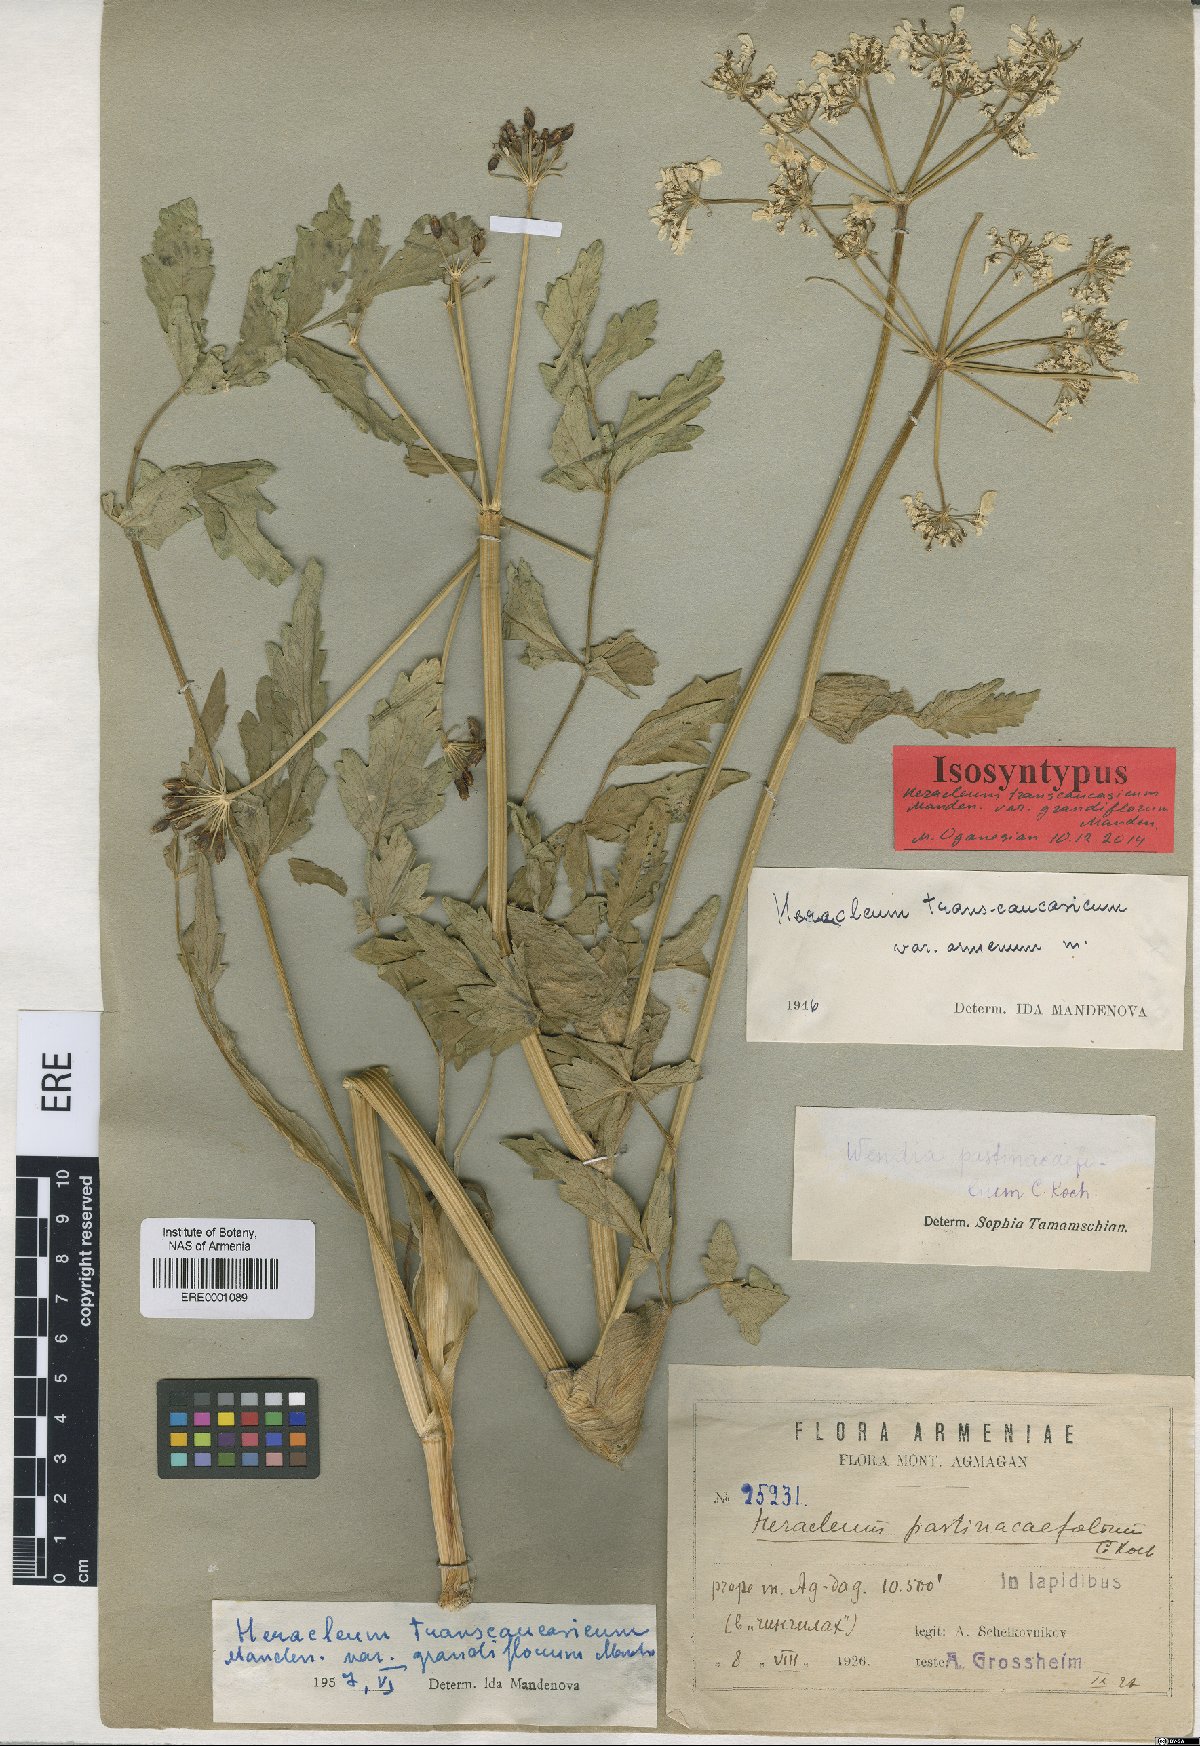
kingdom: Plantae
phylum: Tracheophyta
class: Magnoliopsida
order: Apiales
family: Apiaceae
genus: Heracleum
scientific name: Heracleum pastinacifolium
